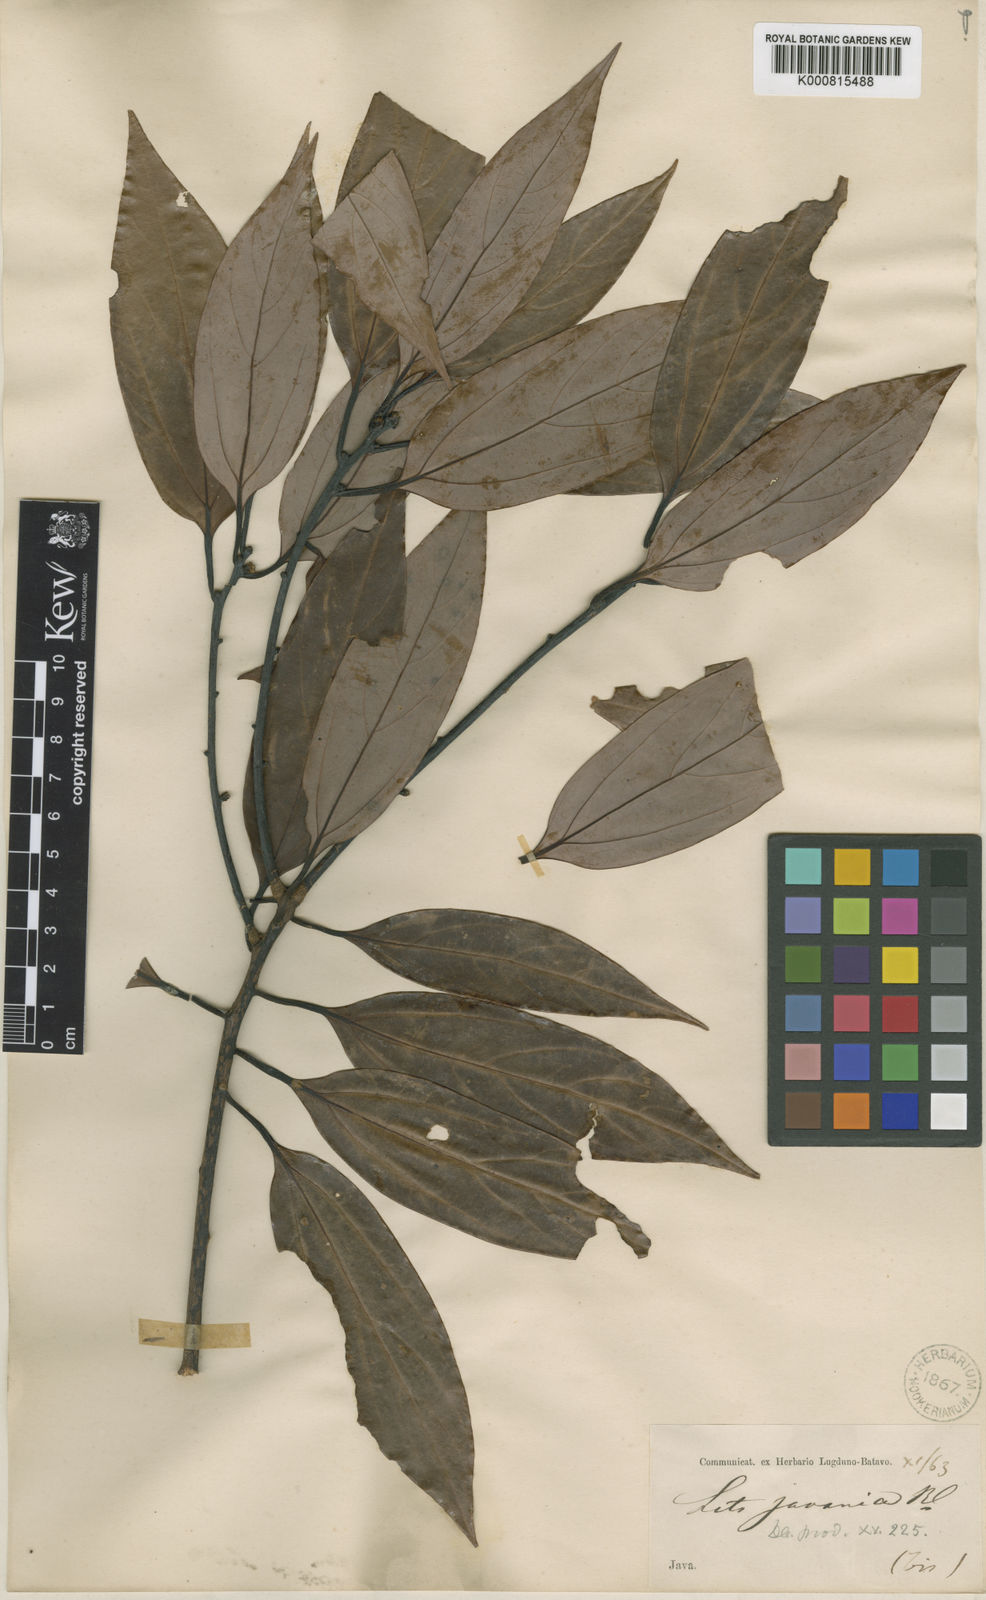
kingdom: Plantae
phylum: Tracheophyta
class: Magnoliopsida
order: Laurales
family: Lauraceae
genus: Neolitsea
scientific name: Neolitsea javanica
